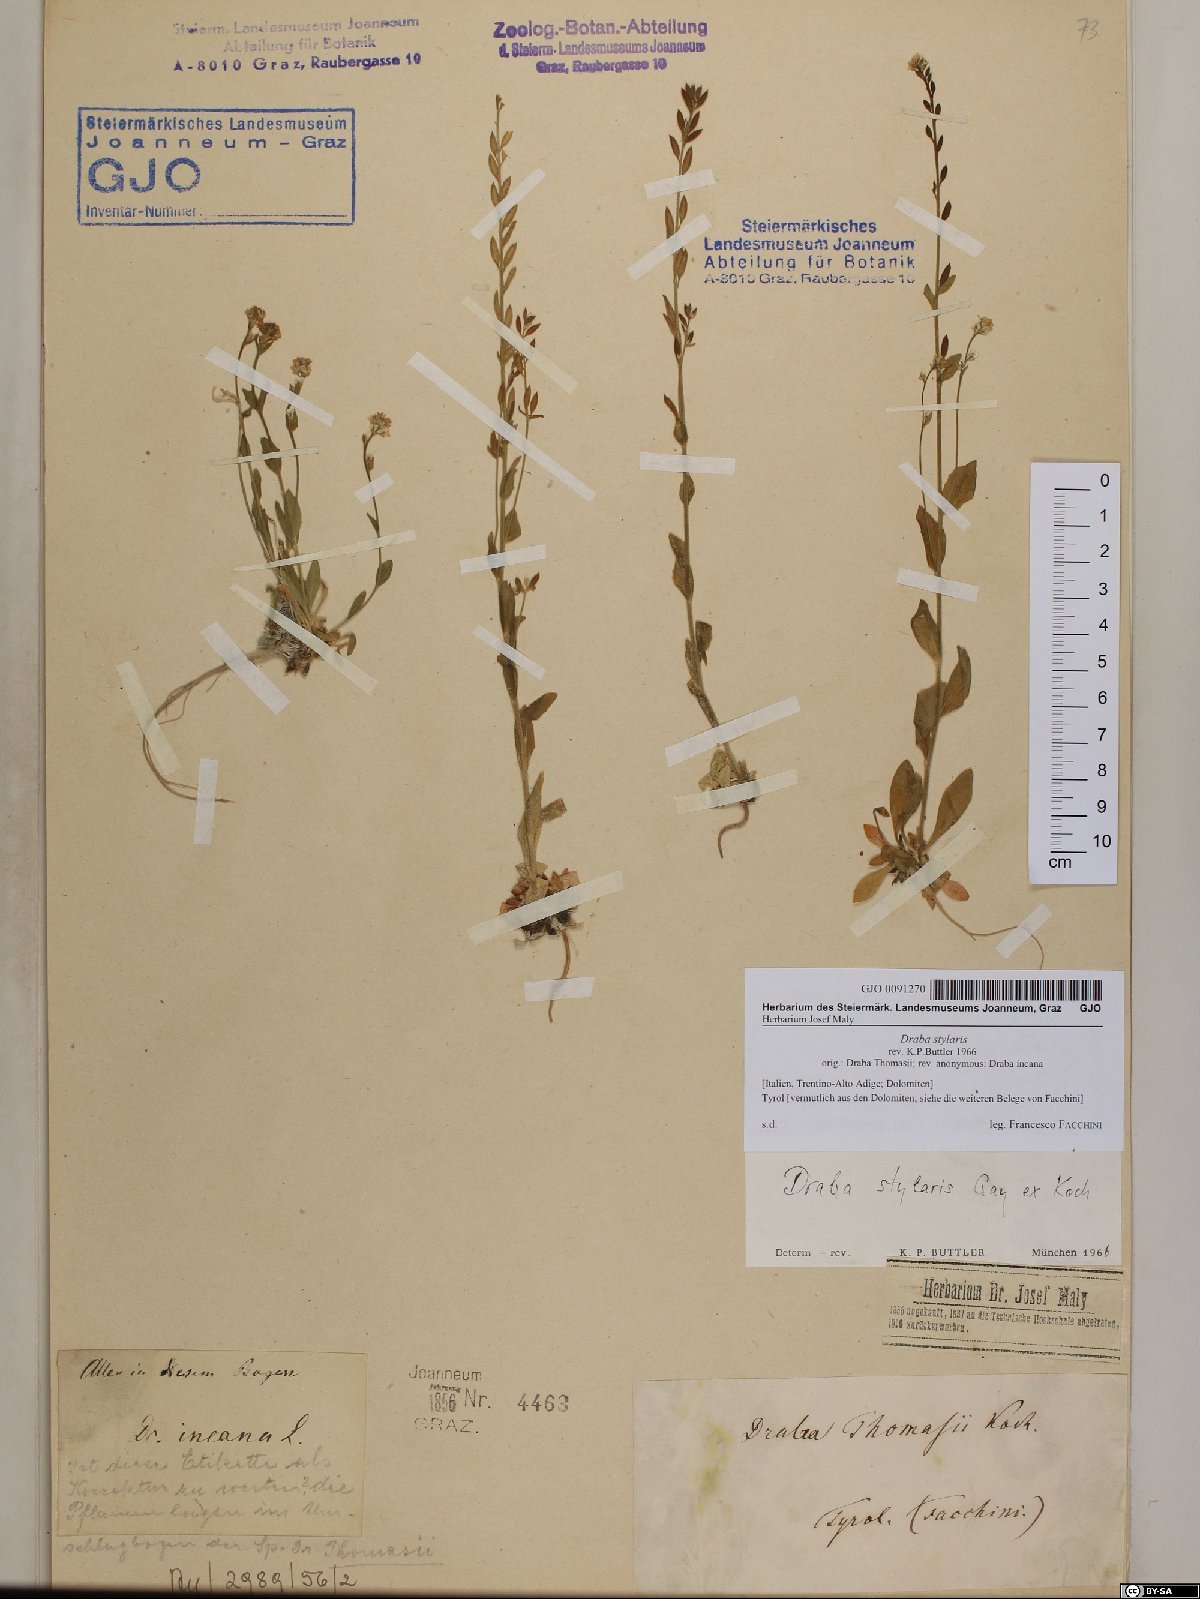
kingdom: Plantae
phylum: Tracheophyta
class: Magnoliopsida
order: Brassicales
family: Brassicaceae
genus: Draba
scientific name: Draba thomasii
